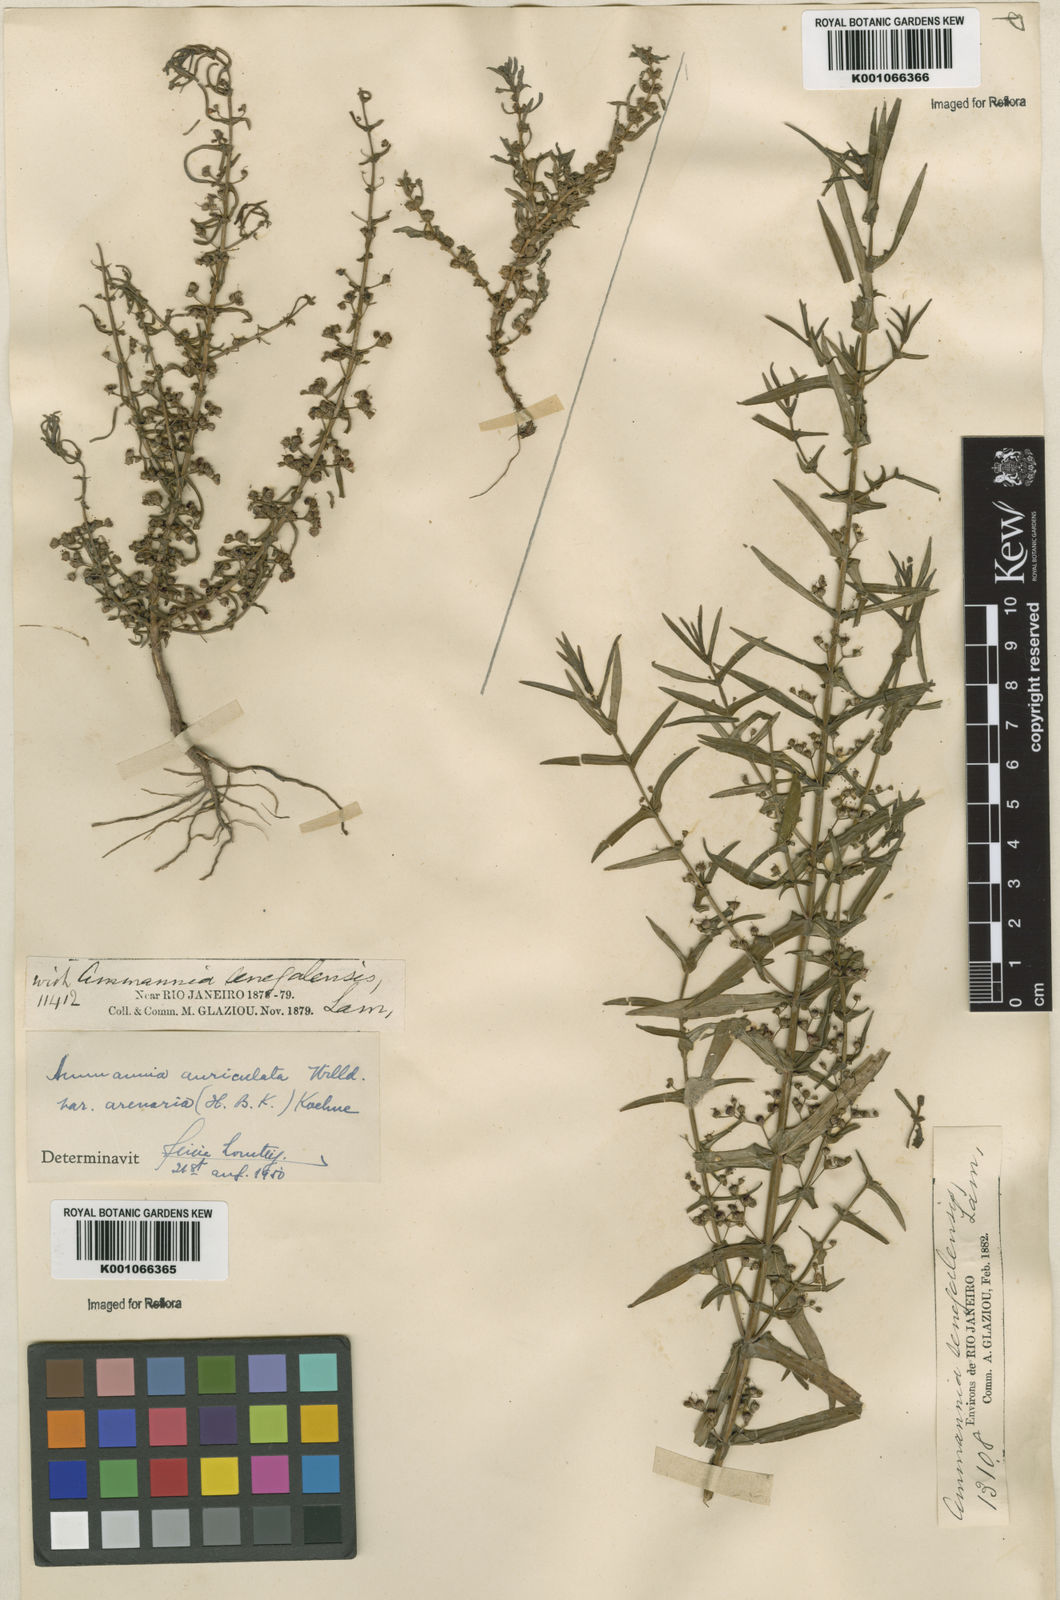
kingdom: Plantae
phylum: Tracheophyta
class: Magnoliopsida
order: Myrtales
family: Lythraceae
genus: Ammannia
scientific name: Ammannia auriculata
